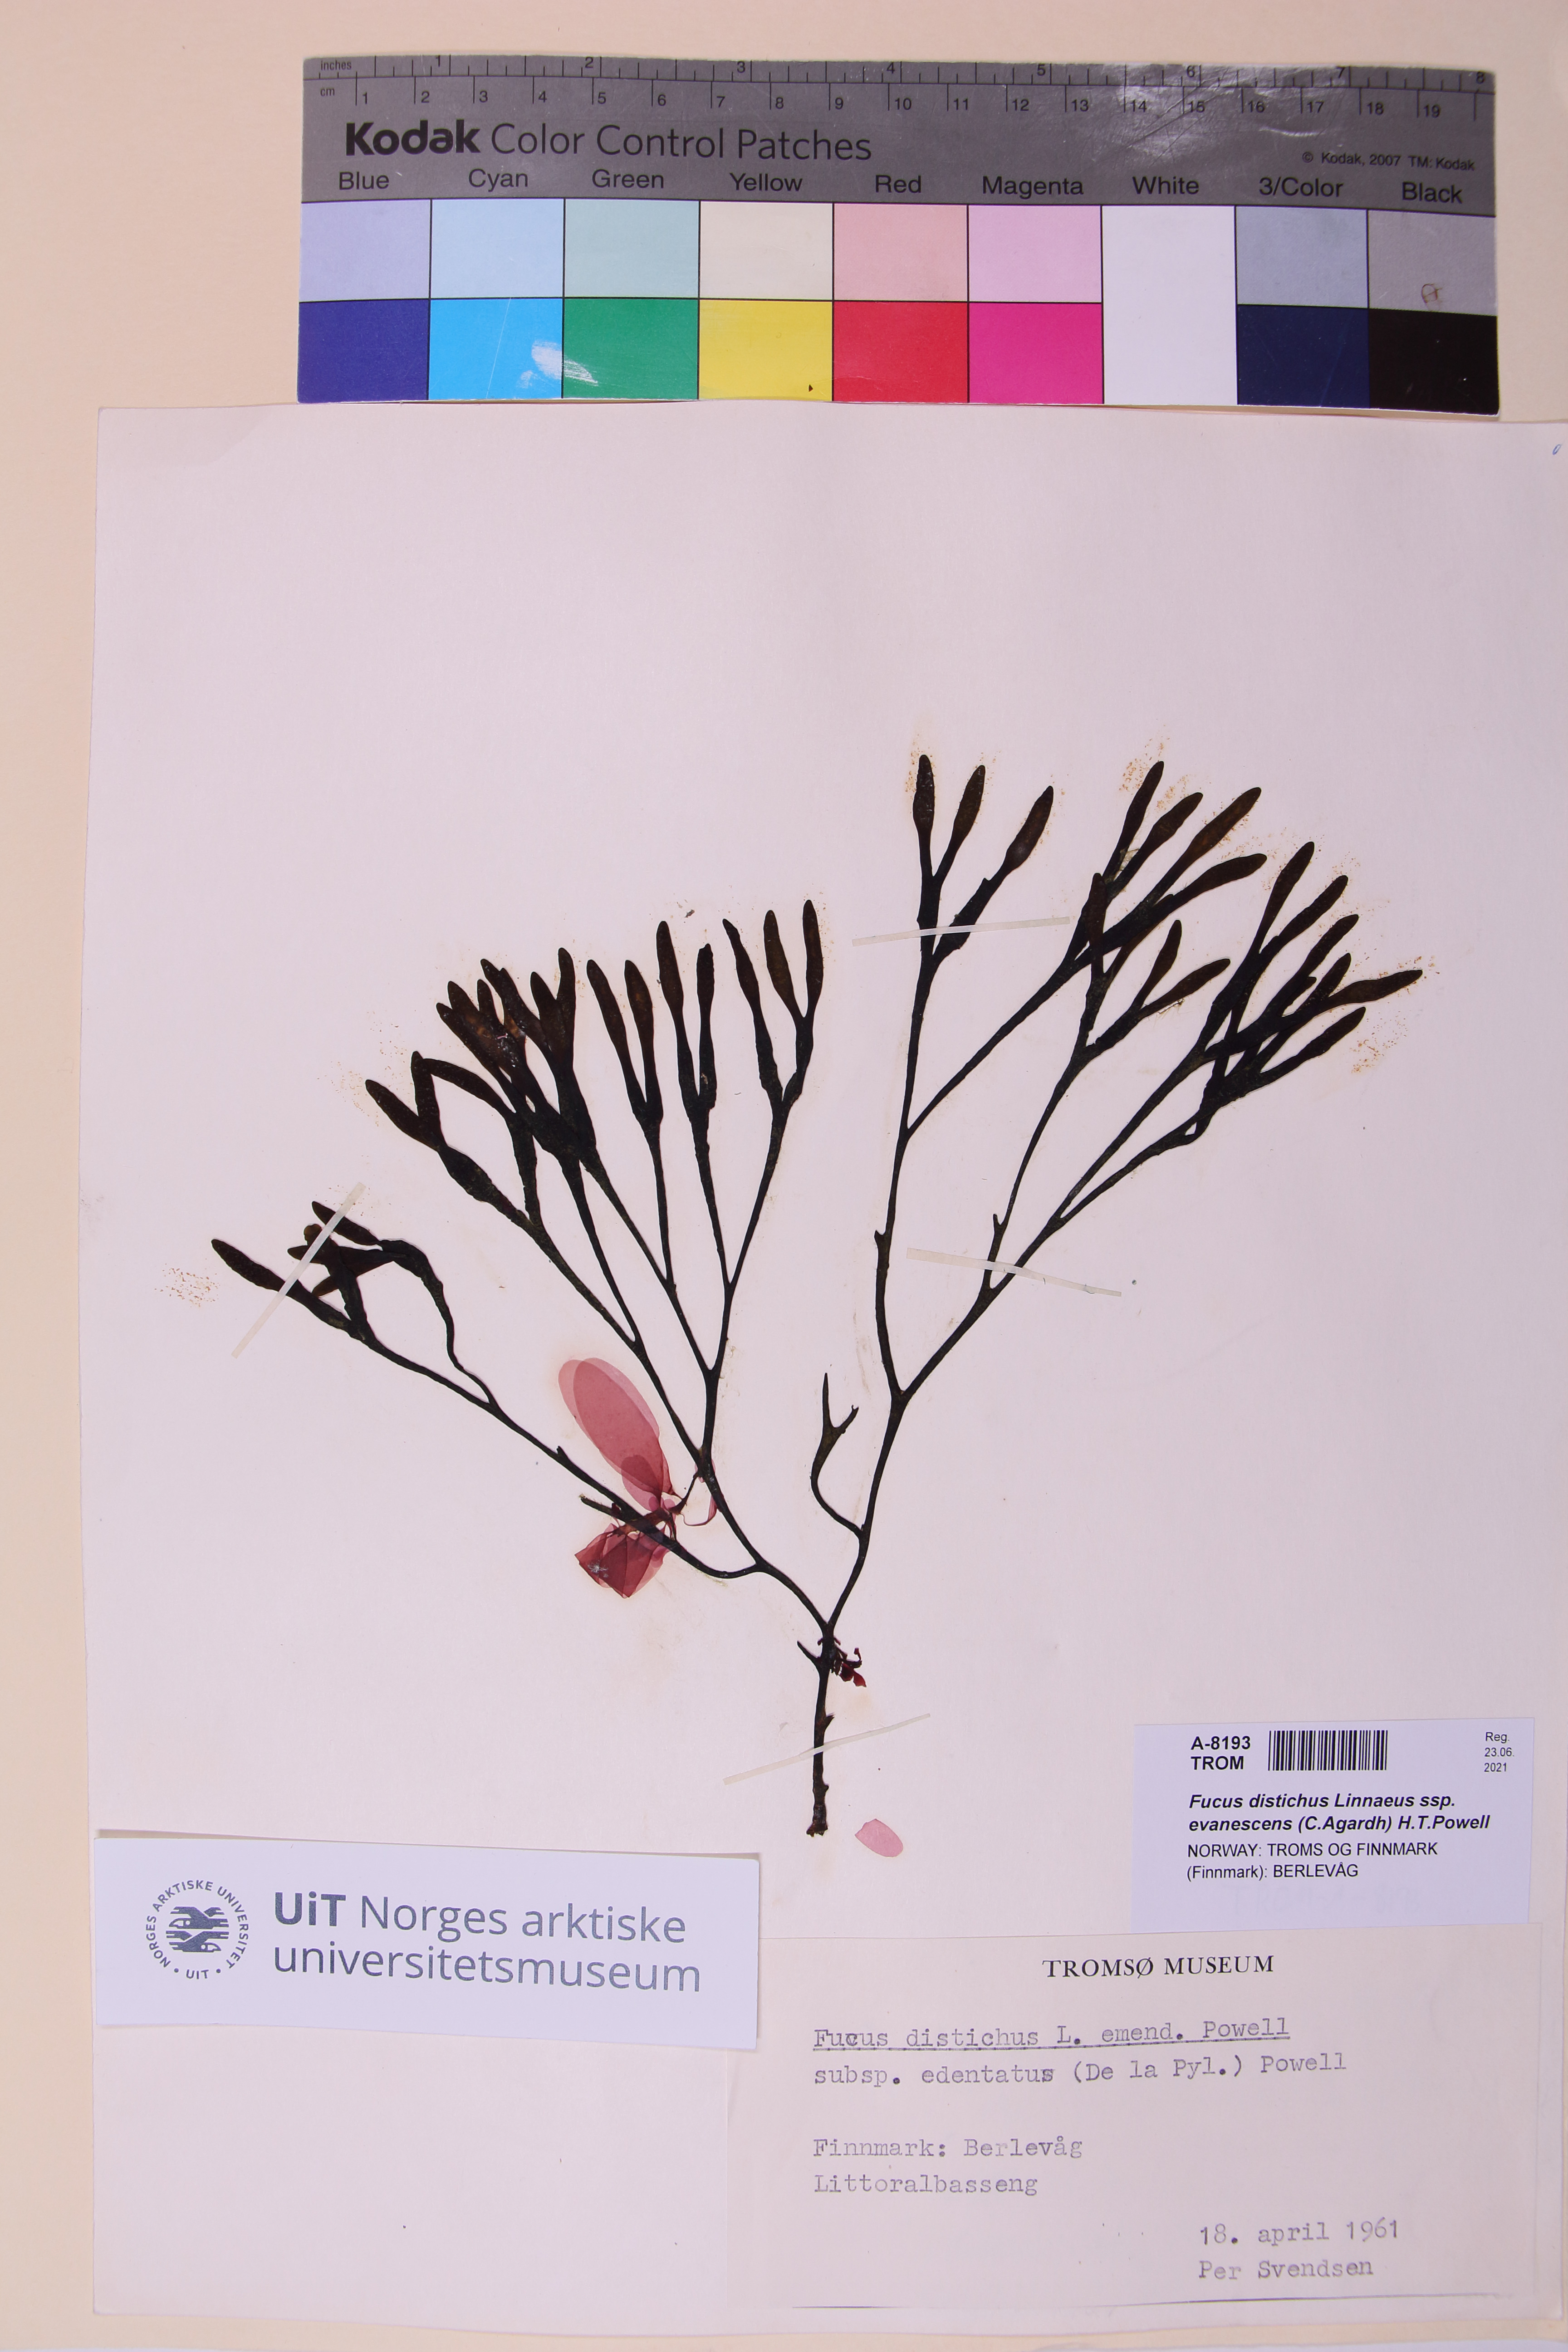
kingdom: Chromista
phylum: Ochrophyta
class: Phaeophyceae
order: Fucales
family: Fucaceae
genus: Fucus
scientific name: Fucus evanescens
